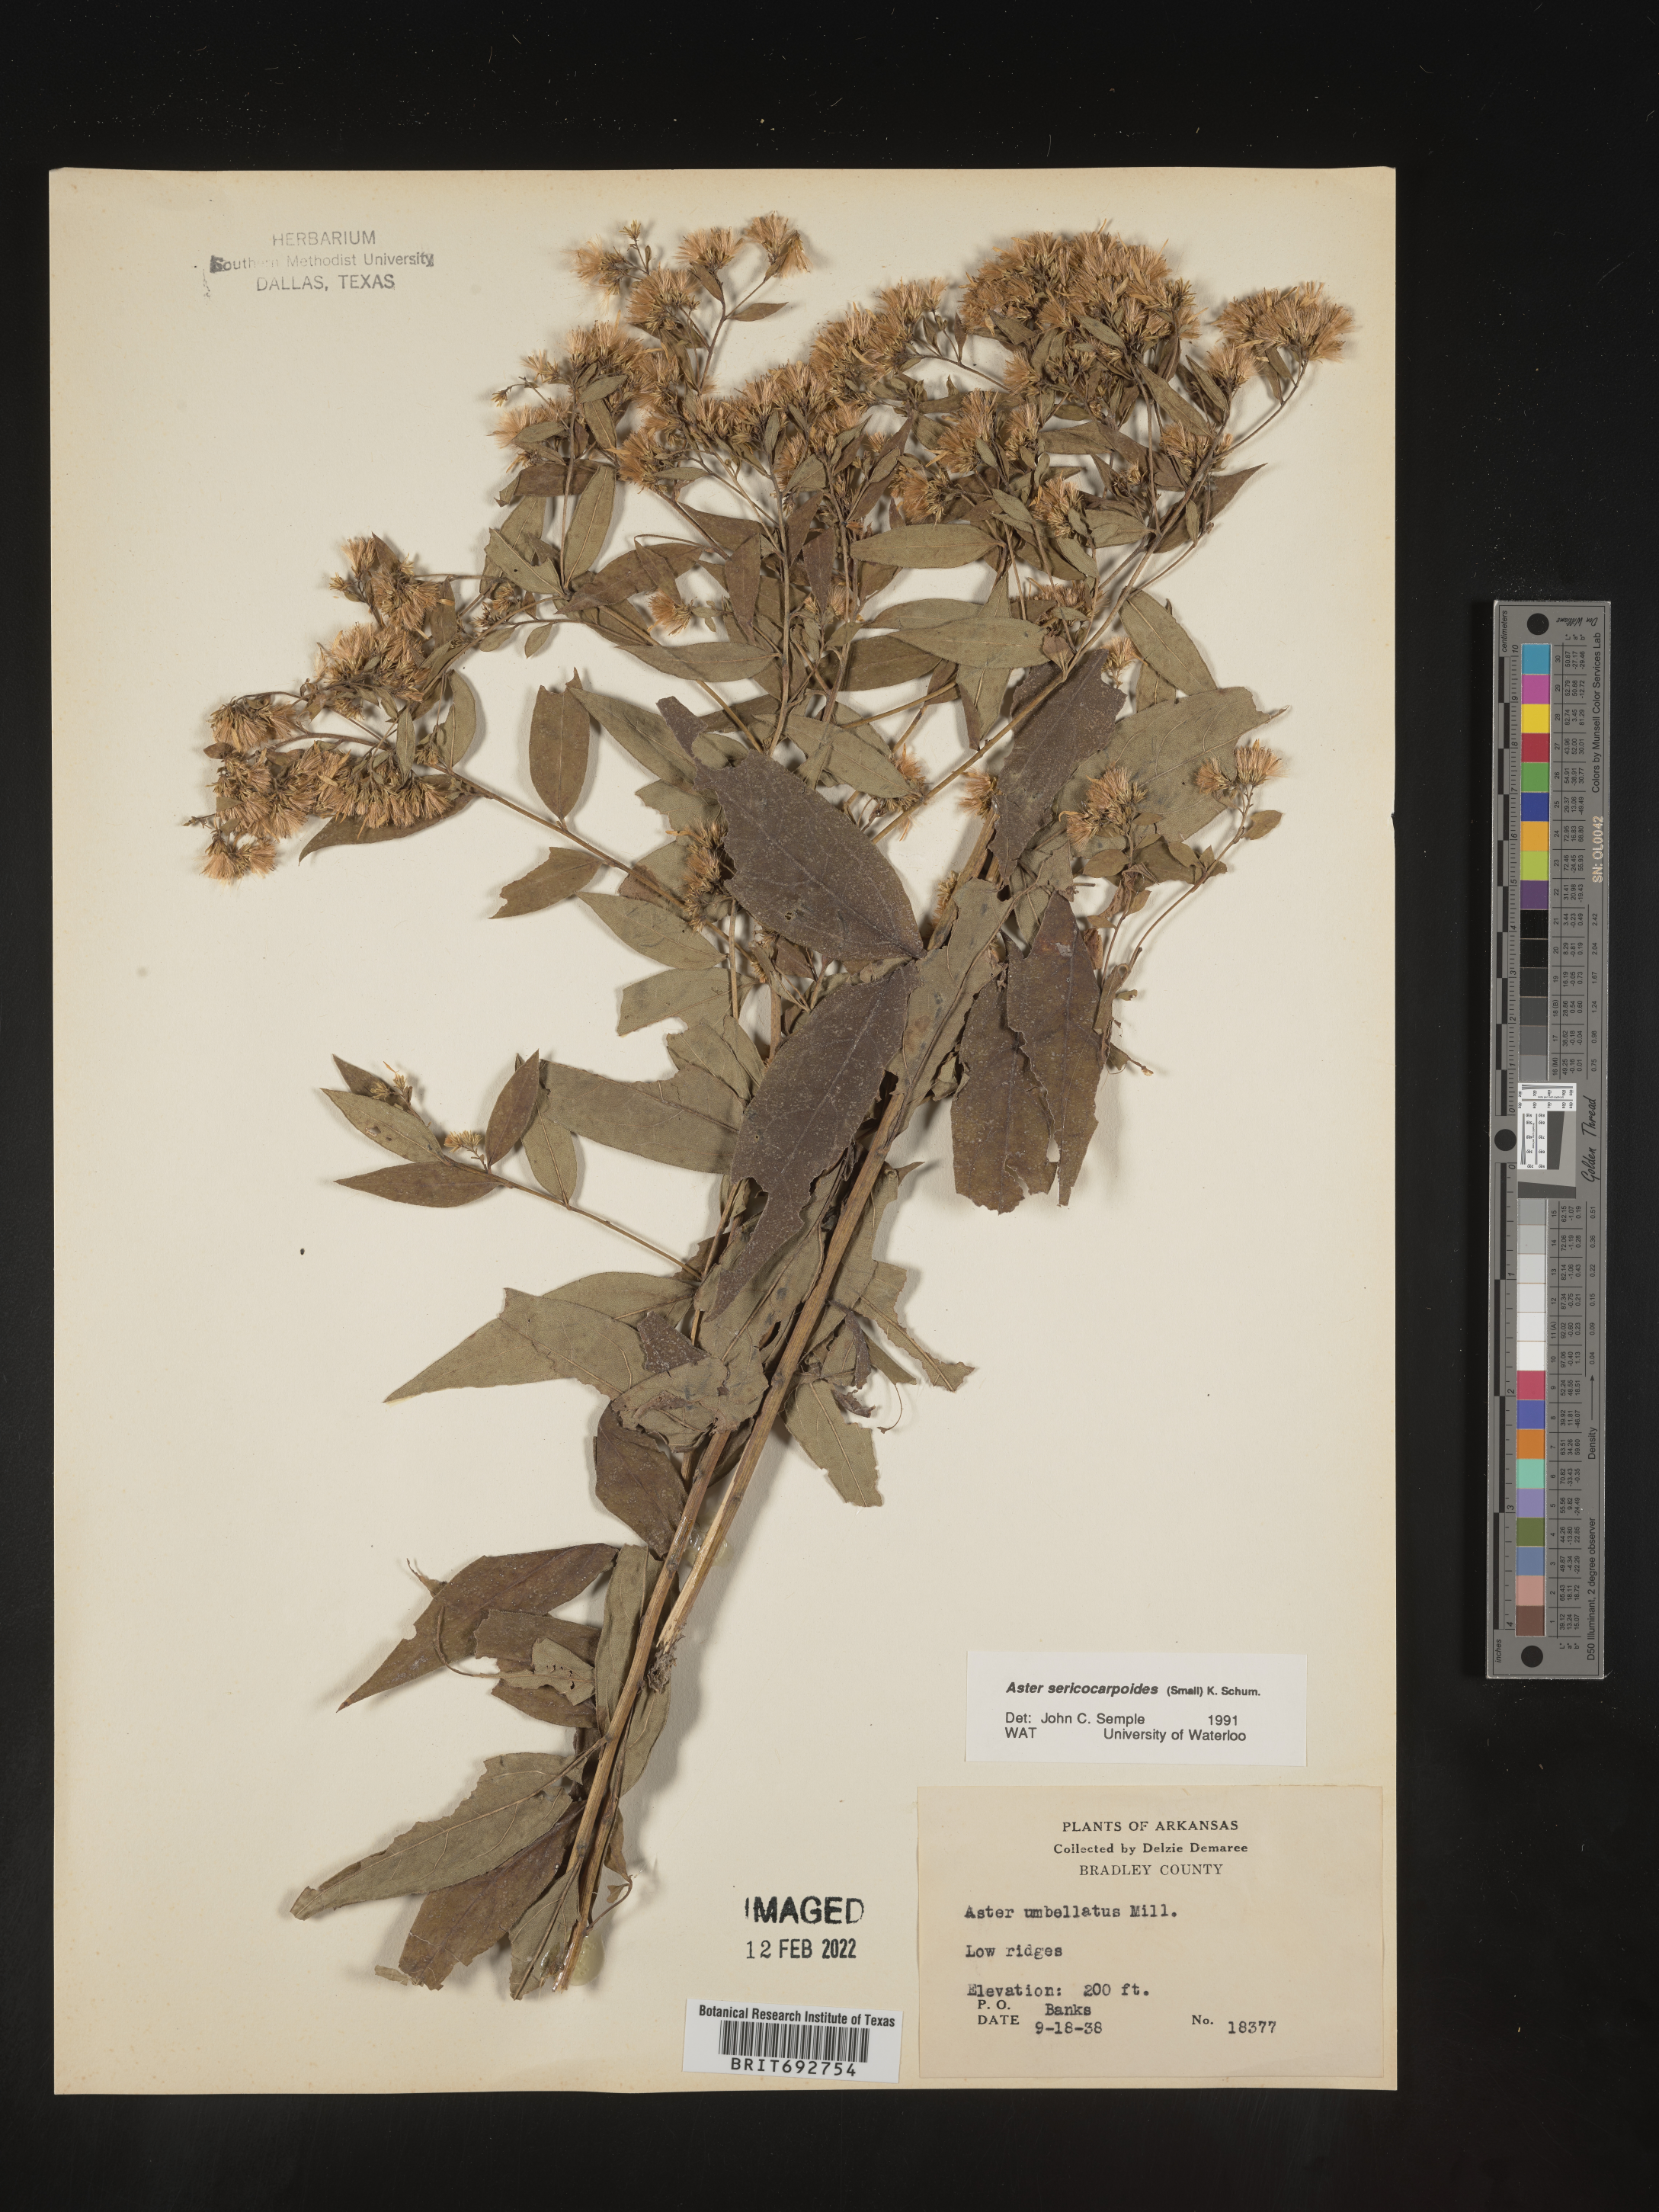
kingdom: Plantae
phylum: Tracheophyta
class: Magnoliopsida
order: Asterales
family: Asteraceae
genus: Doellingeria
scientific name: Doellingeria sericocarpoides
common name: Southern tall flat-top aster
